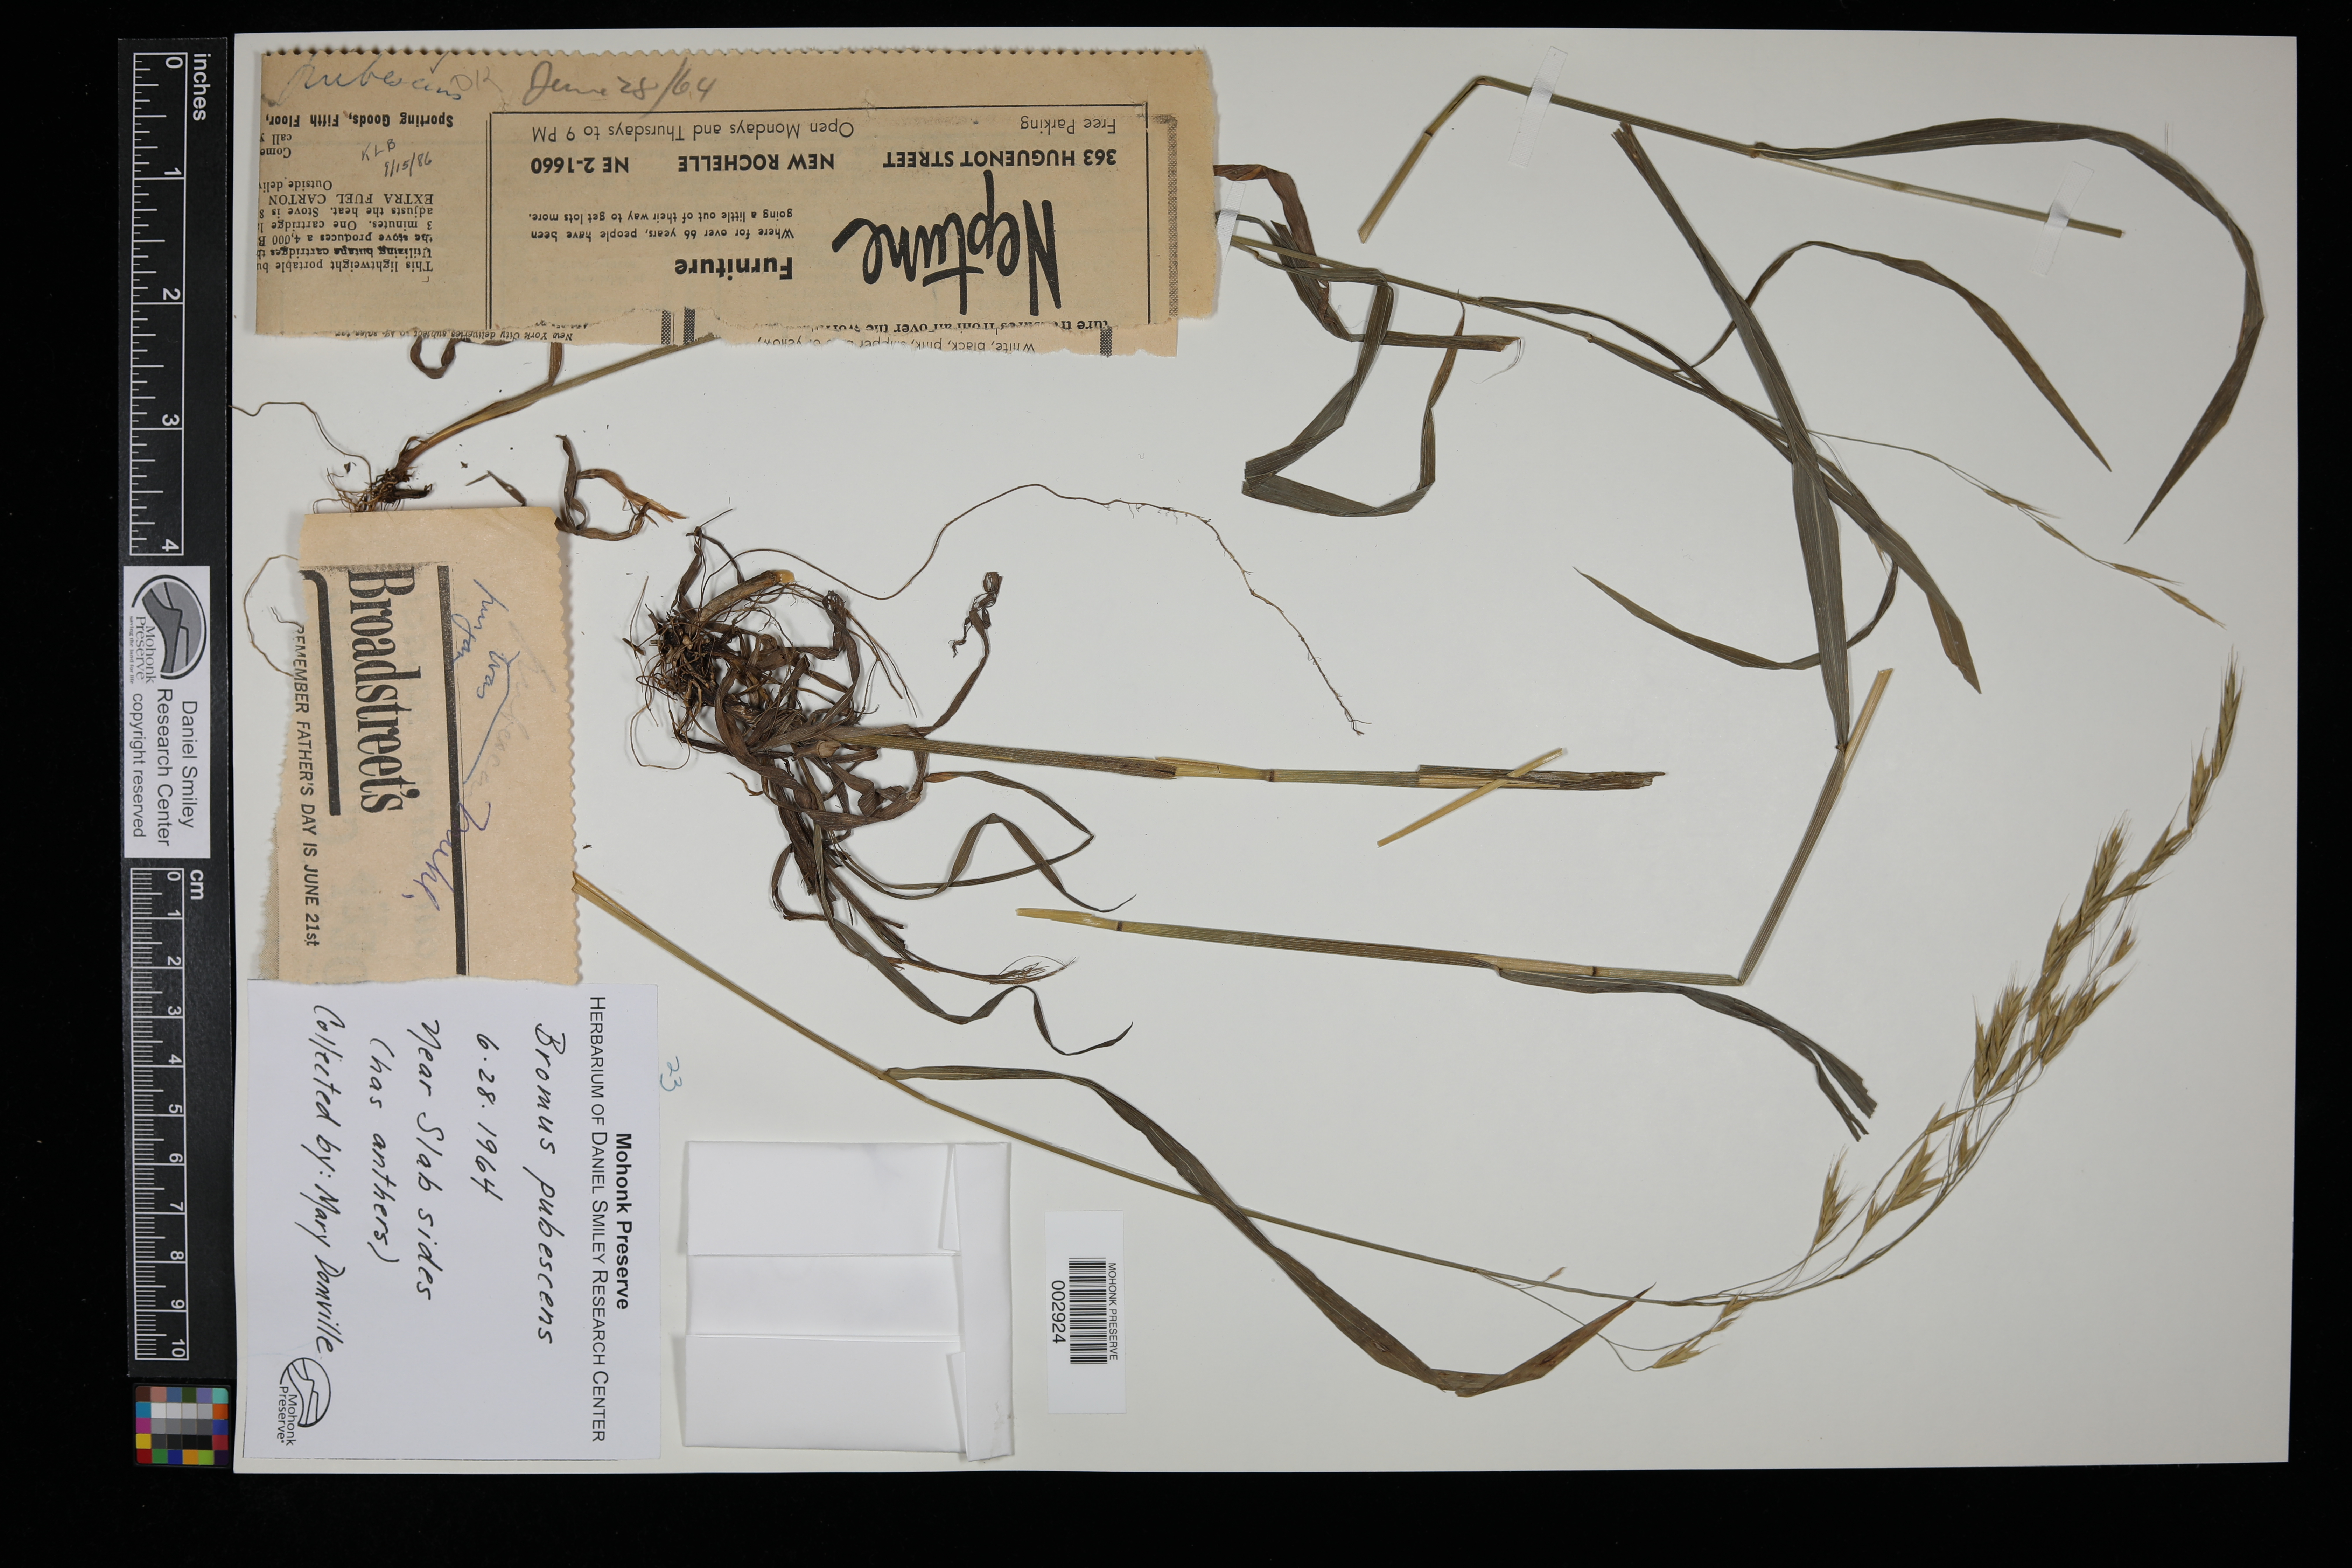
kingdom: Plantae
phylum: Tracheophyta
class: Liliopsida
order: Poales
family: Poaceae
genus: Bromus
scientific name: Bromus pubescens
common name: Hairy wood brome grass
